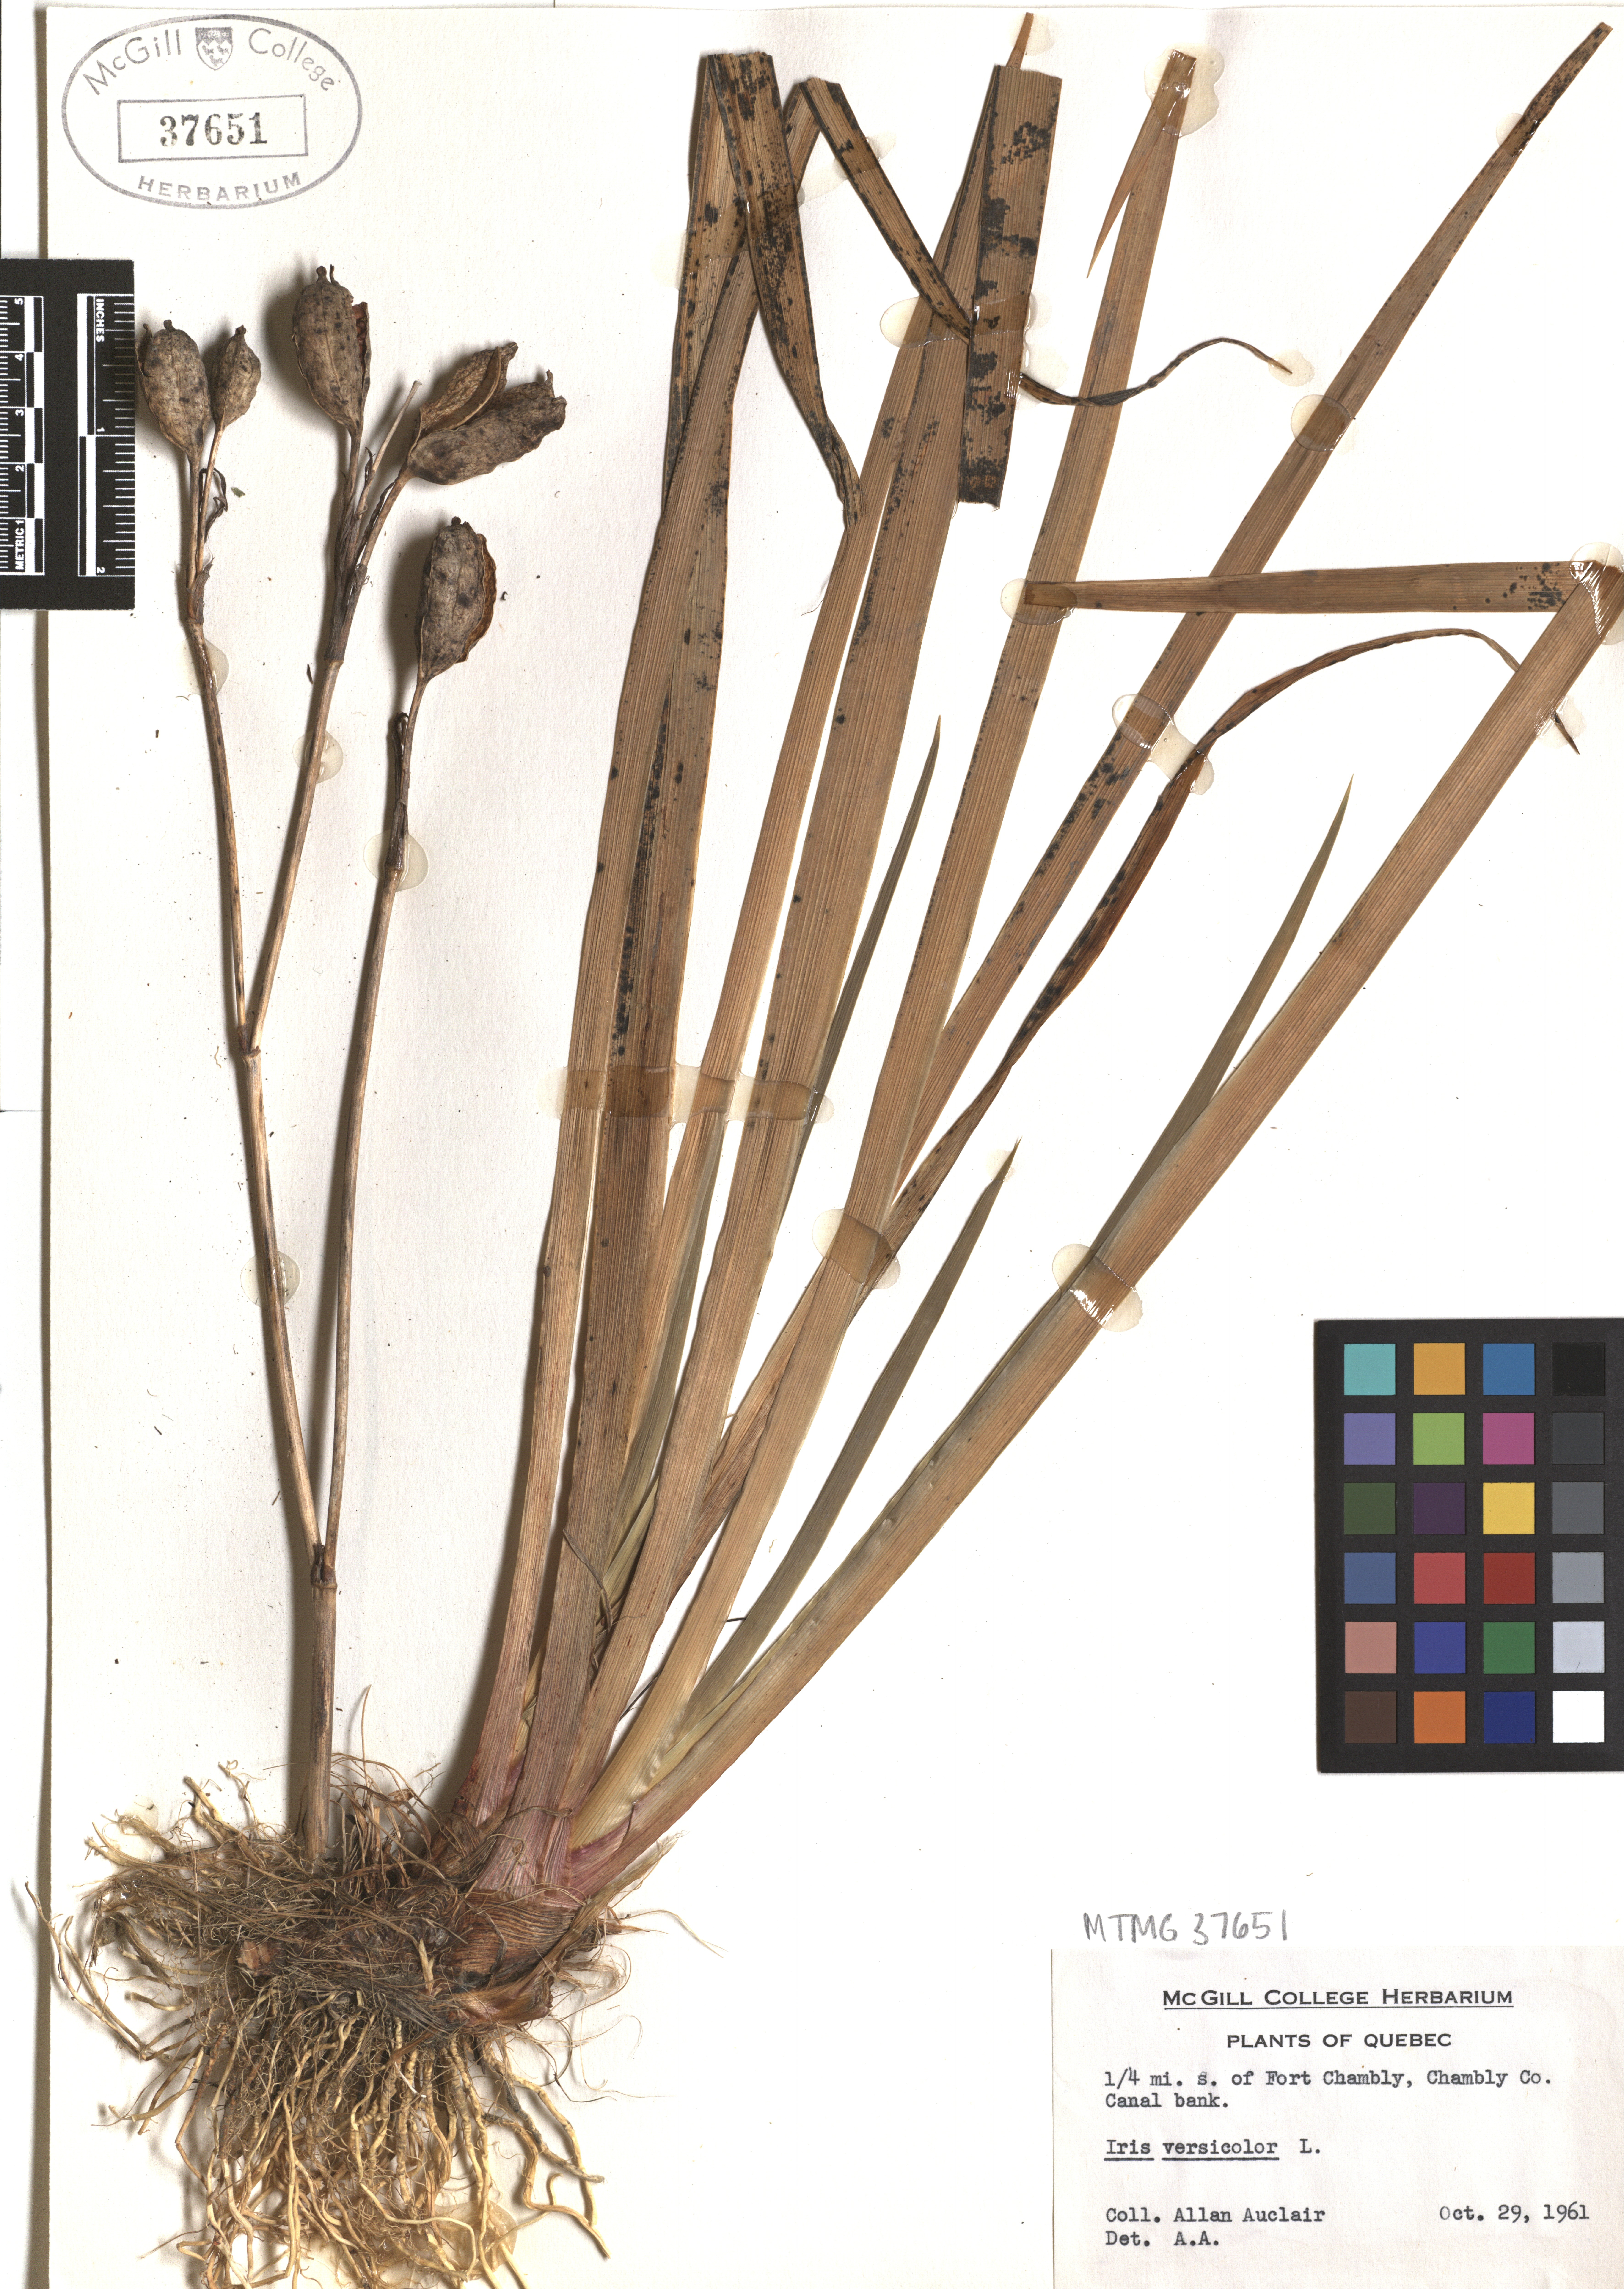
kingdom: Plantae
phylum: Tracheophyta
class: Liliopsida
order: Asparagales
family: Iridaceae
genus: Iris
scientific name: Iris versicolor
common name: Purple iris
